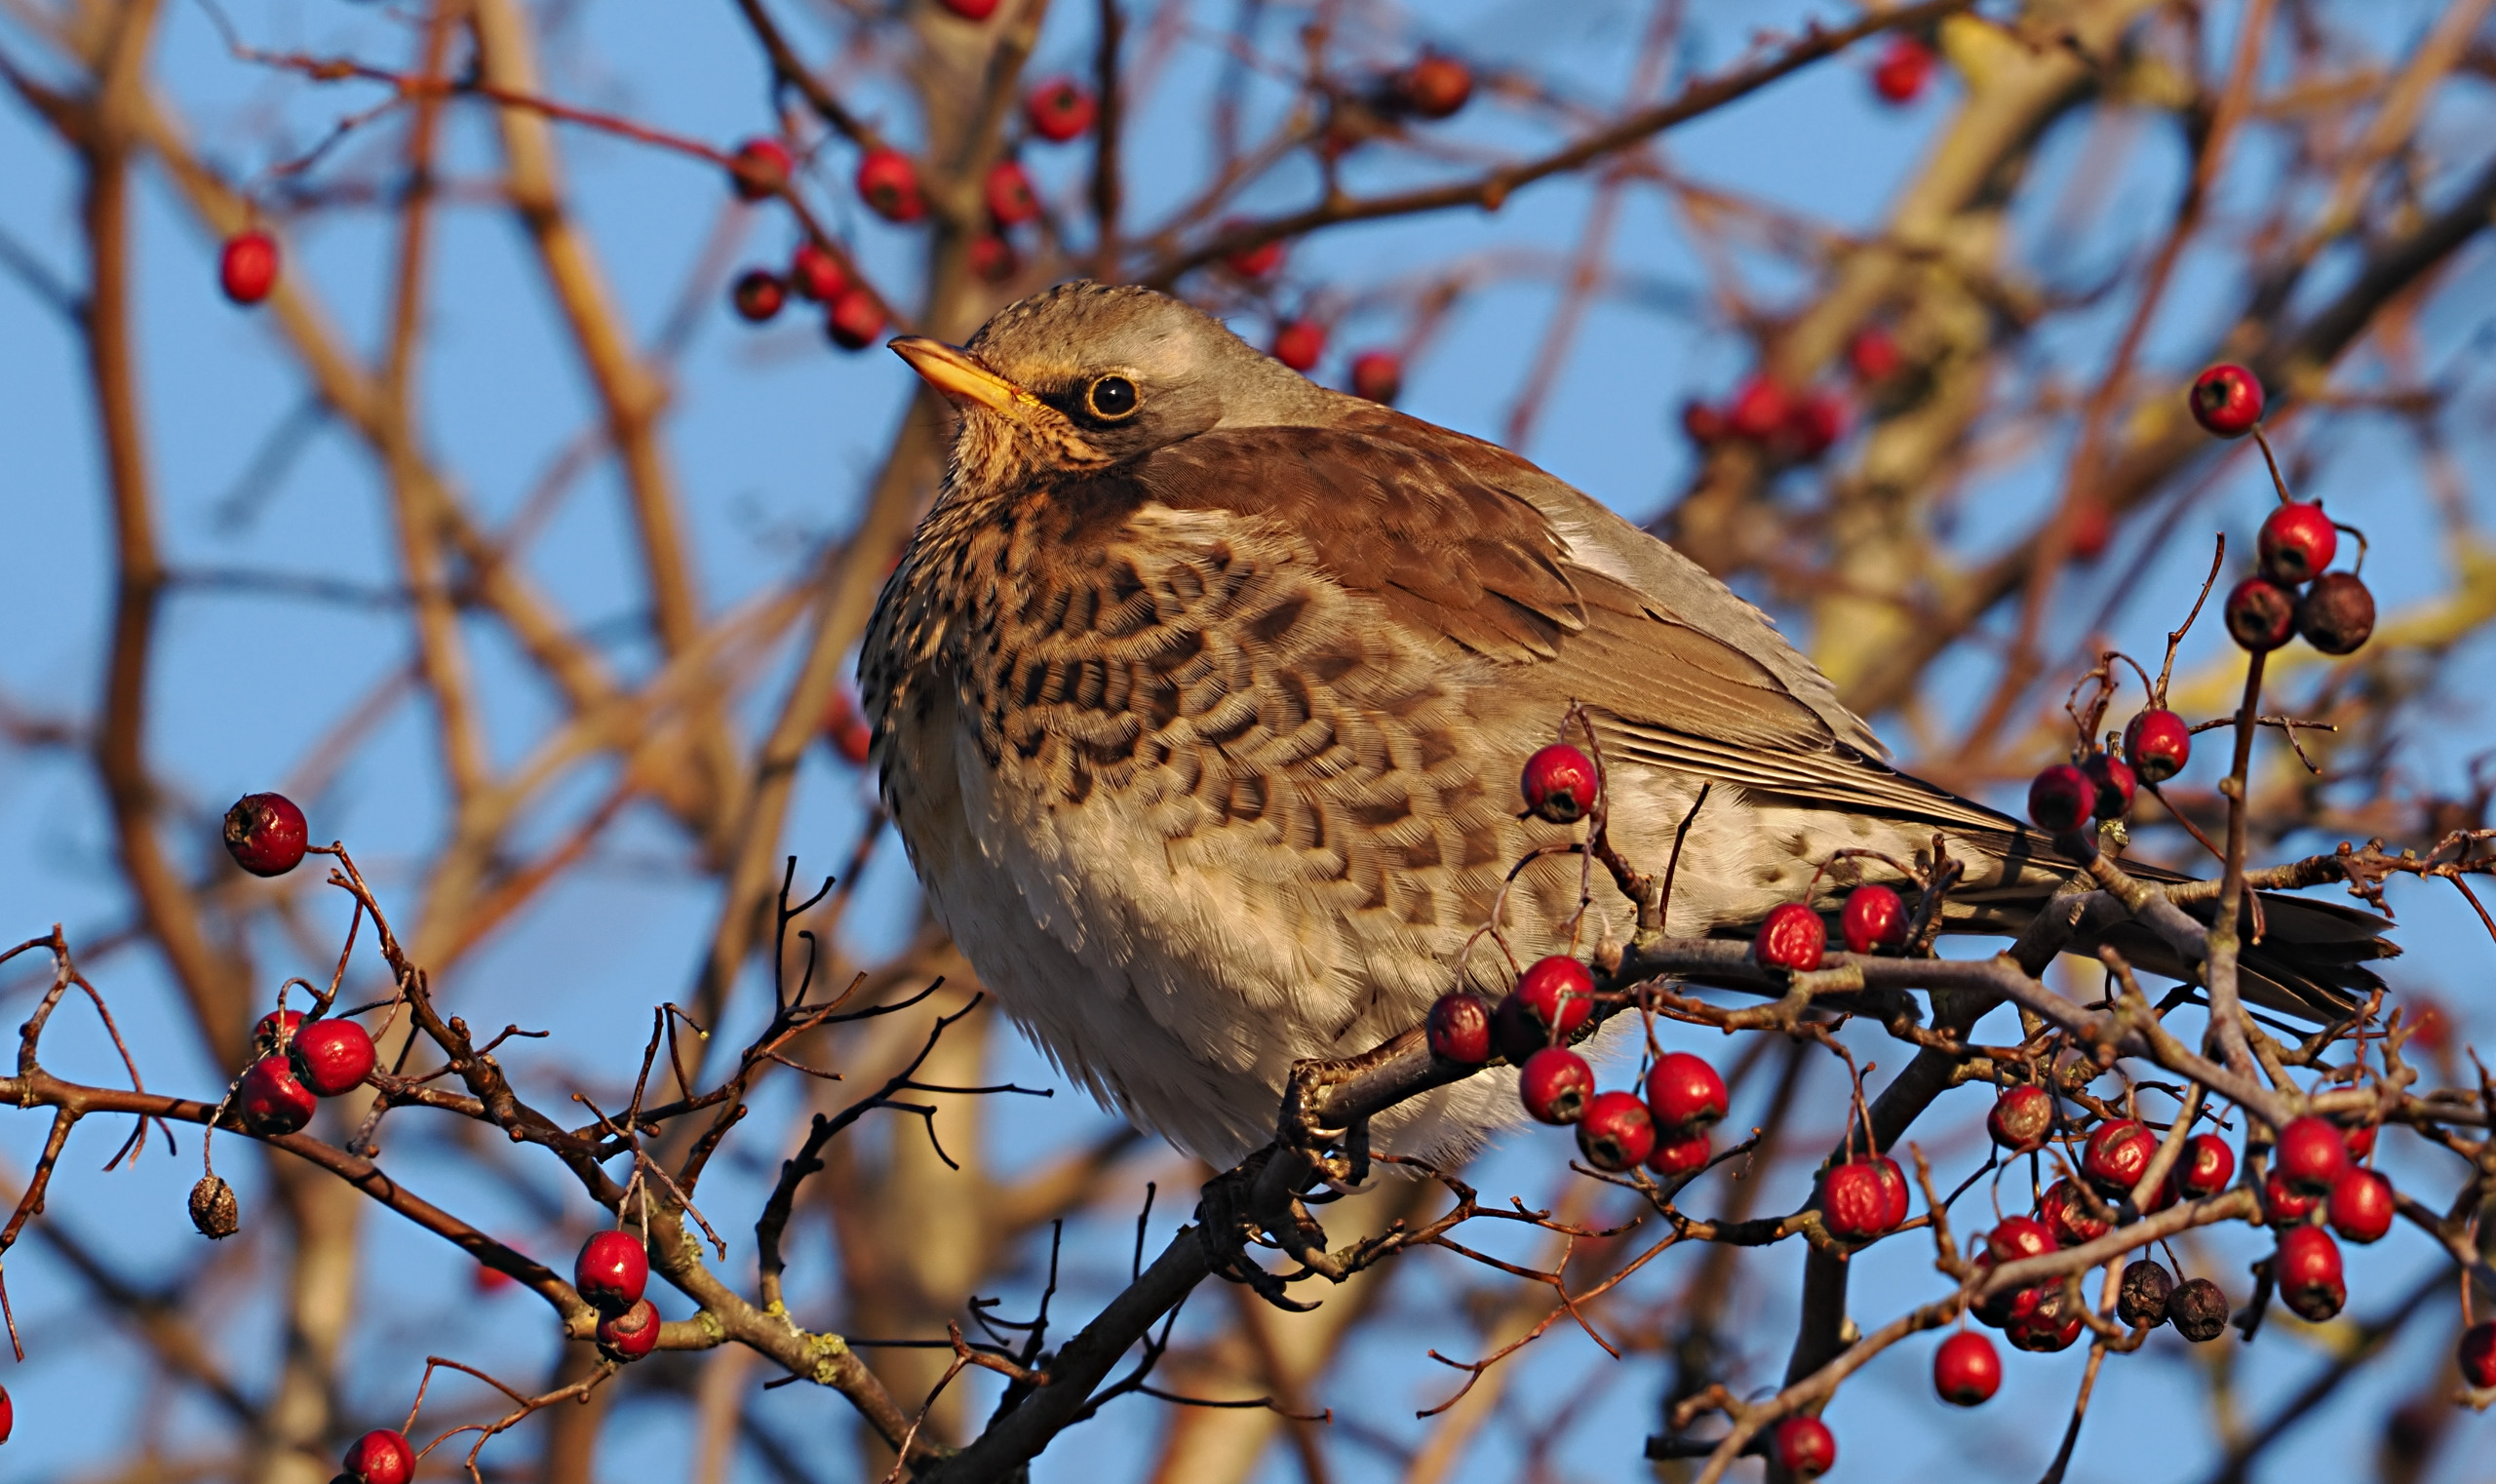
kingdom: Animalia
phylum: Chordata
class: Aves
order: Passeriformes
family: Turdidae
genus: Turdus
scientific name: Turdus pilaris
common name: Sjagger
